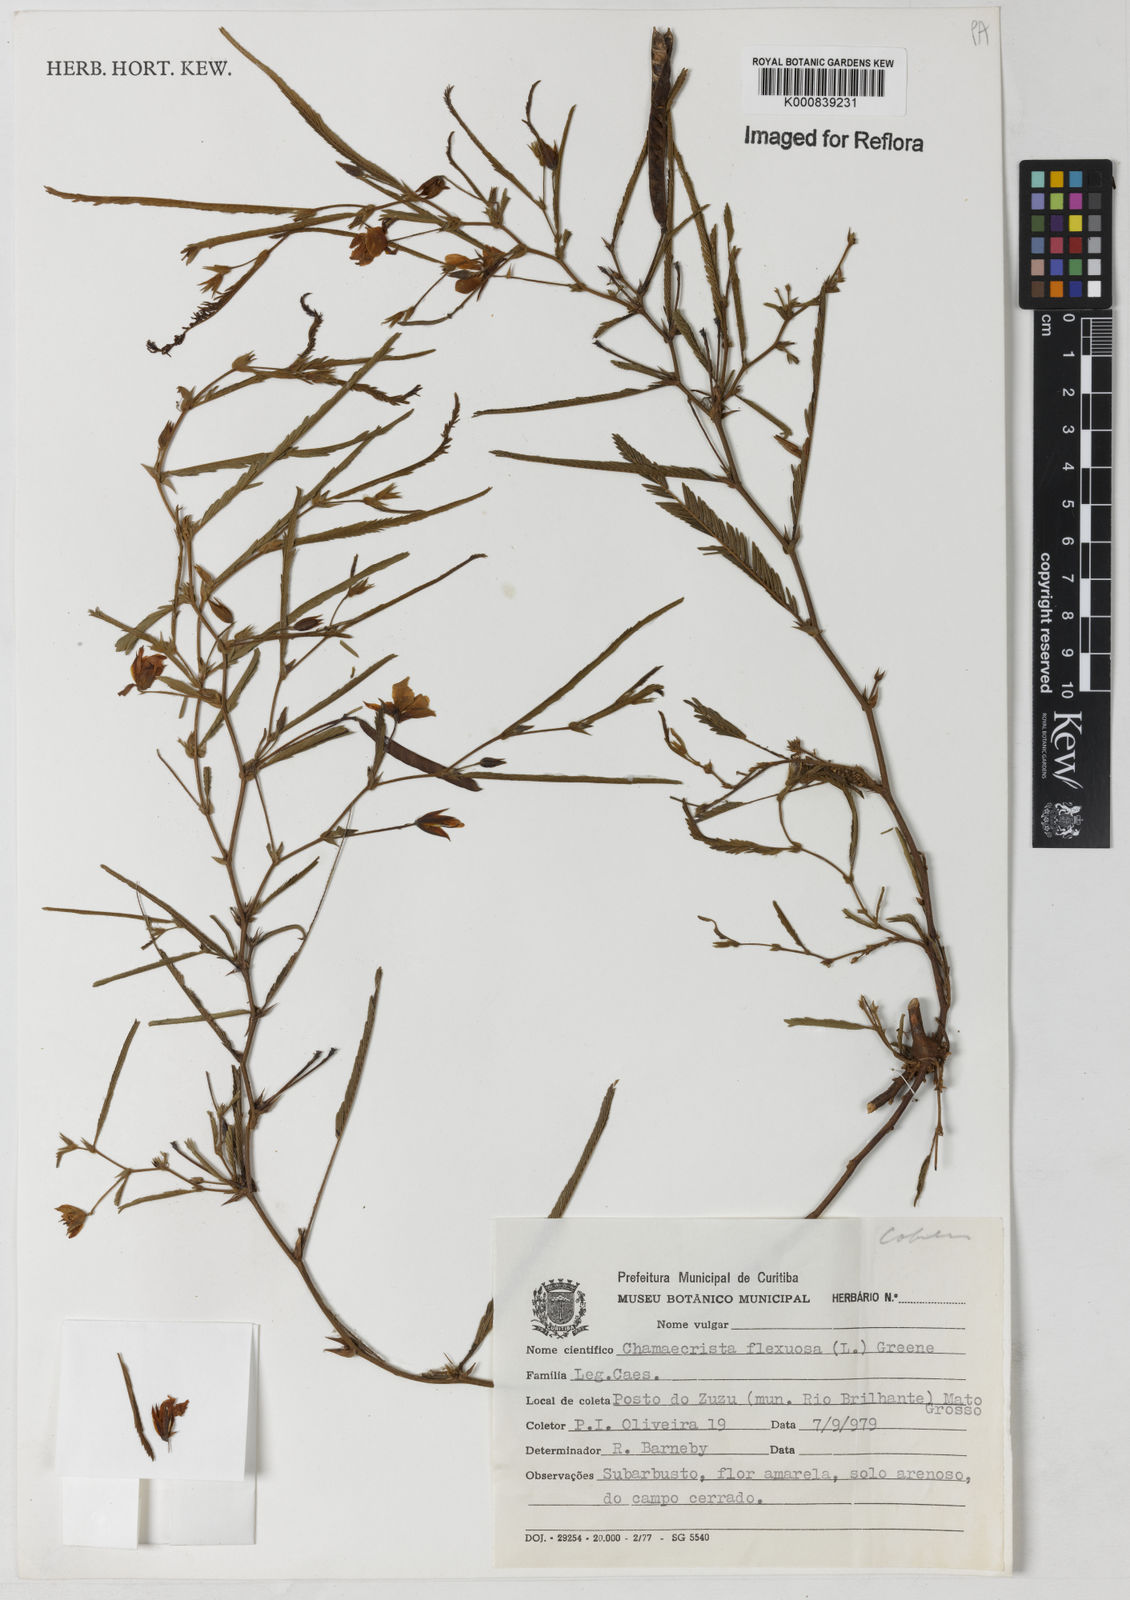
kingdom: Plantae
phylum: Tracheophyta
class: Magnoliopsida
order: Fabales
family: Fabaceae
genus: Chamaecrista
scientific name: Chamaecrista flexuosa
